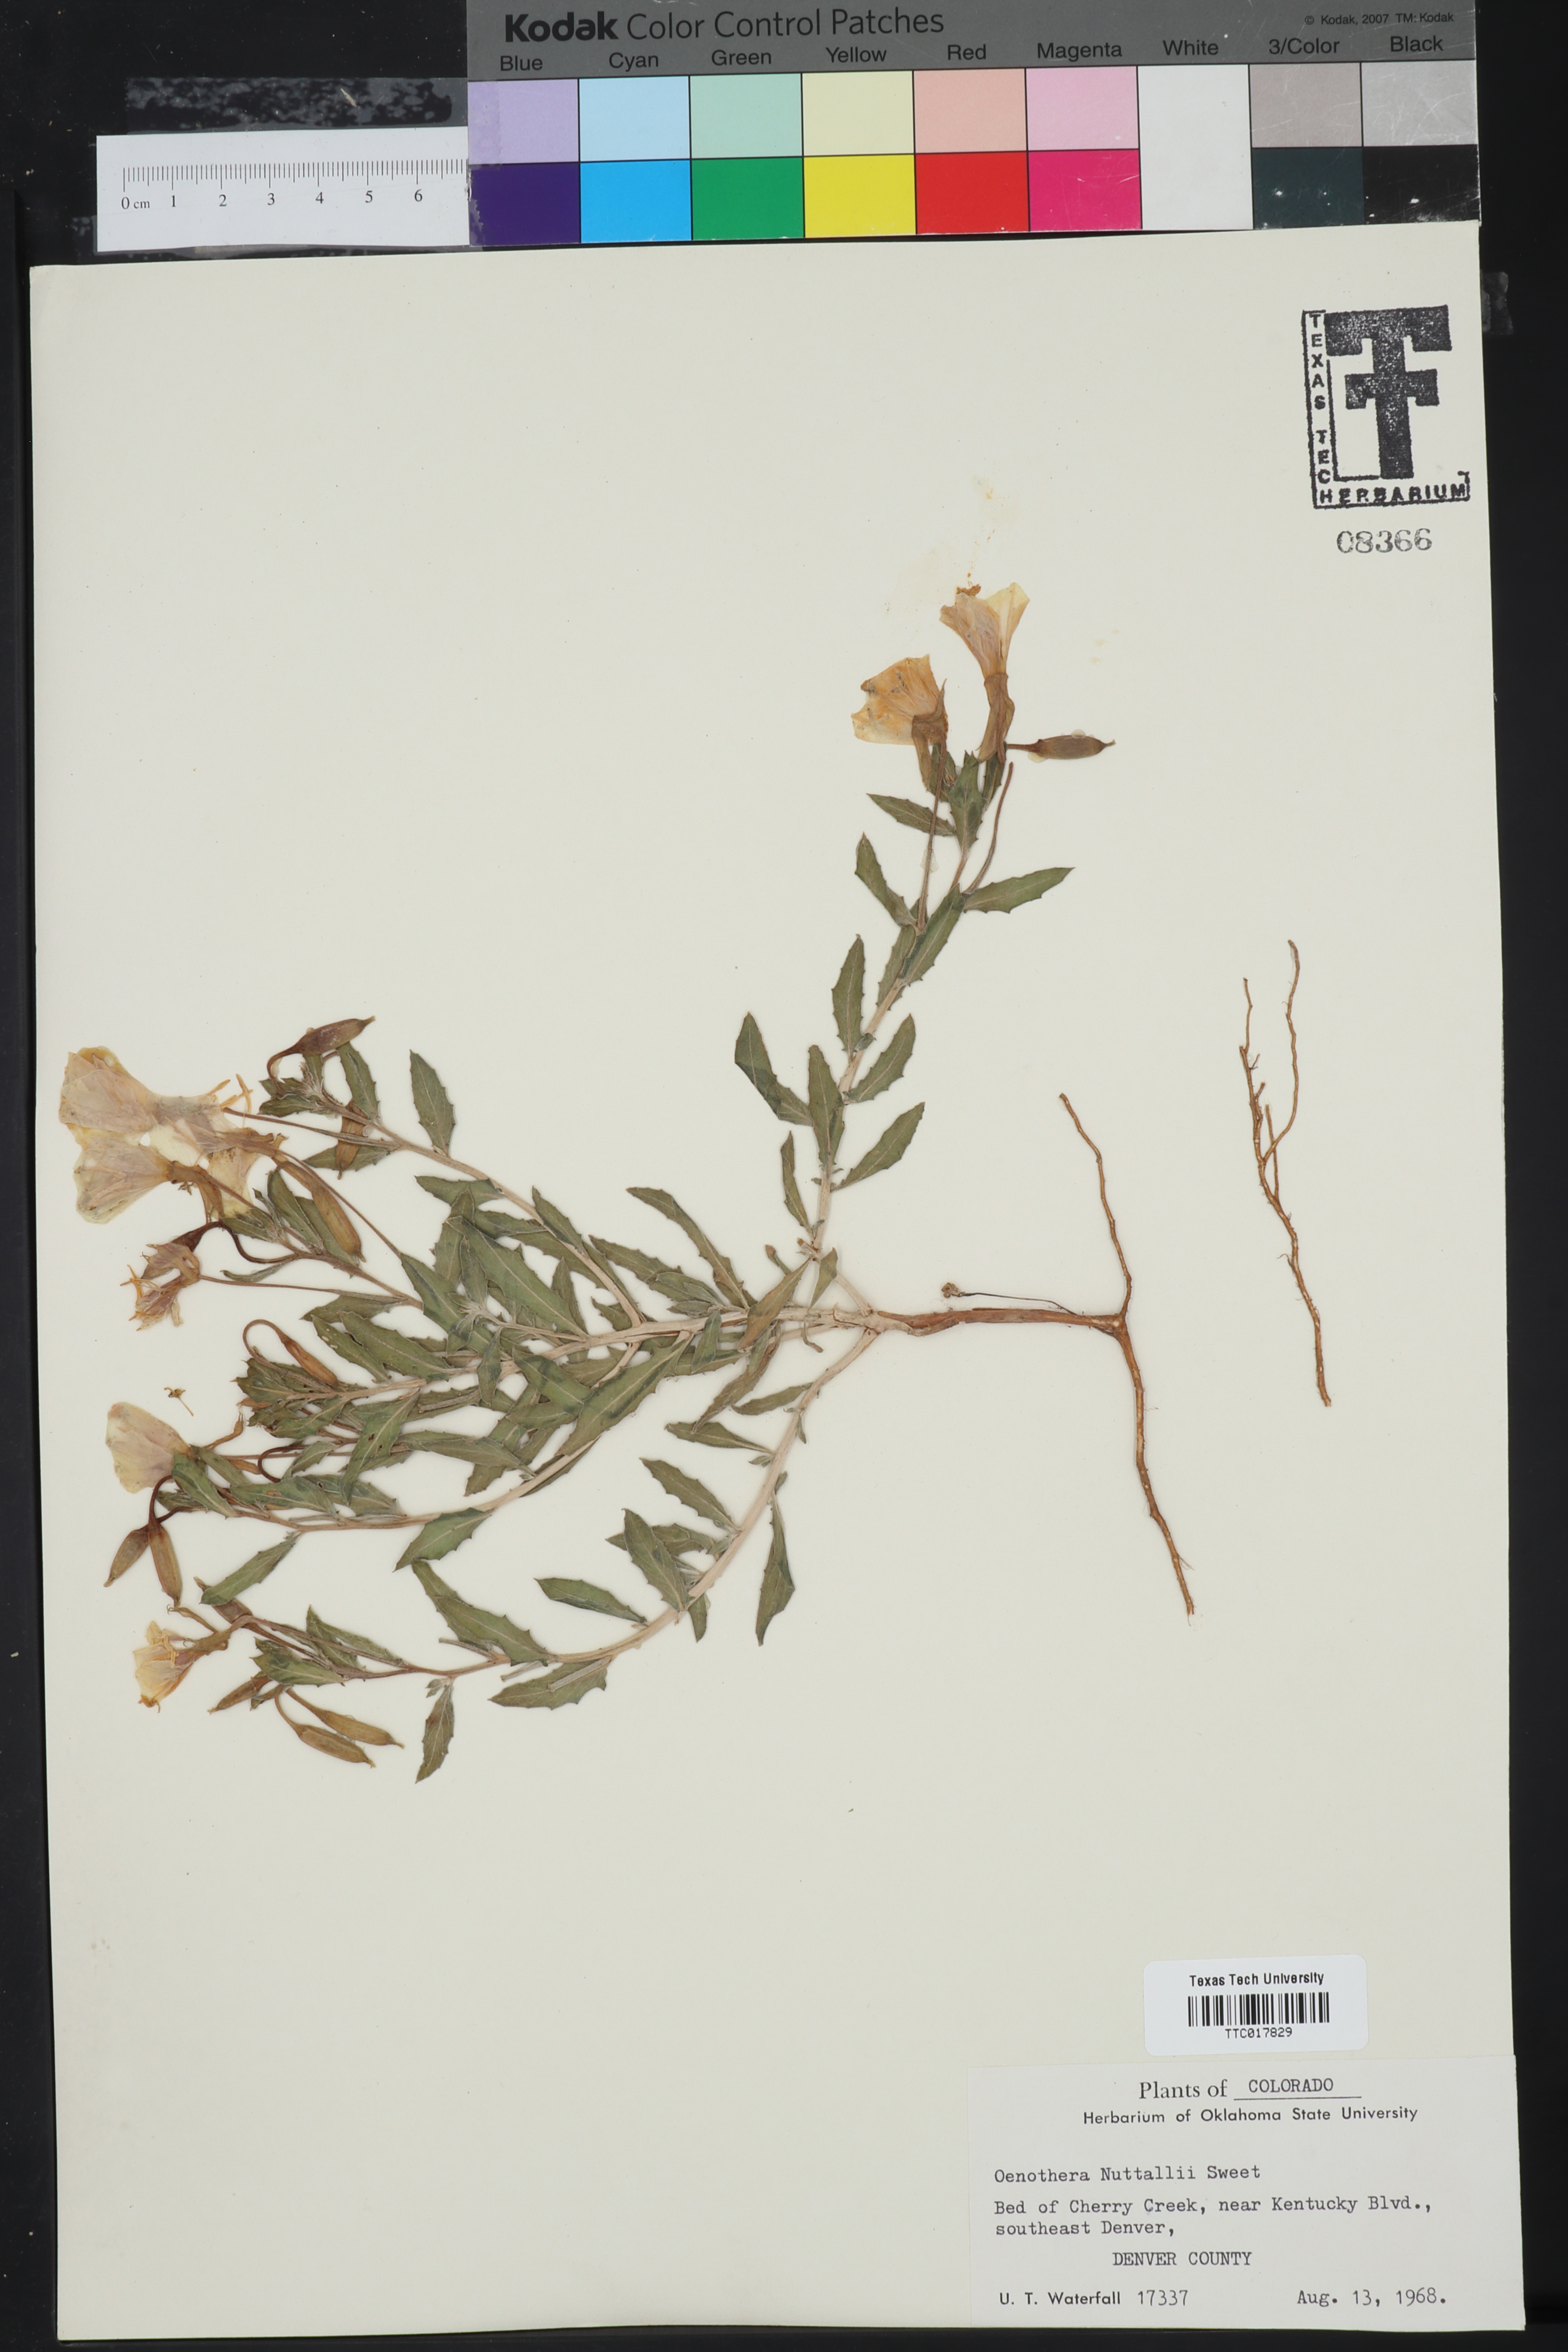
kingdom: Plantae
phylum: Tracheophyta
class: Magnoliopsida
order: Myrtales
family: Onagraceae
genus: Oenothera
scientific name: Oenothera albicaulis
